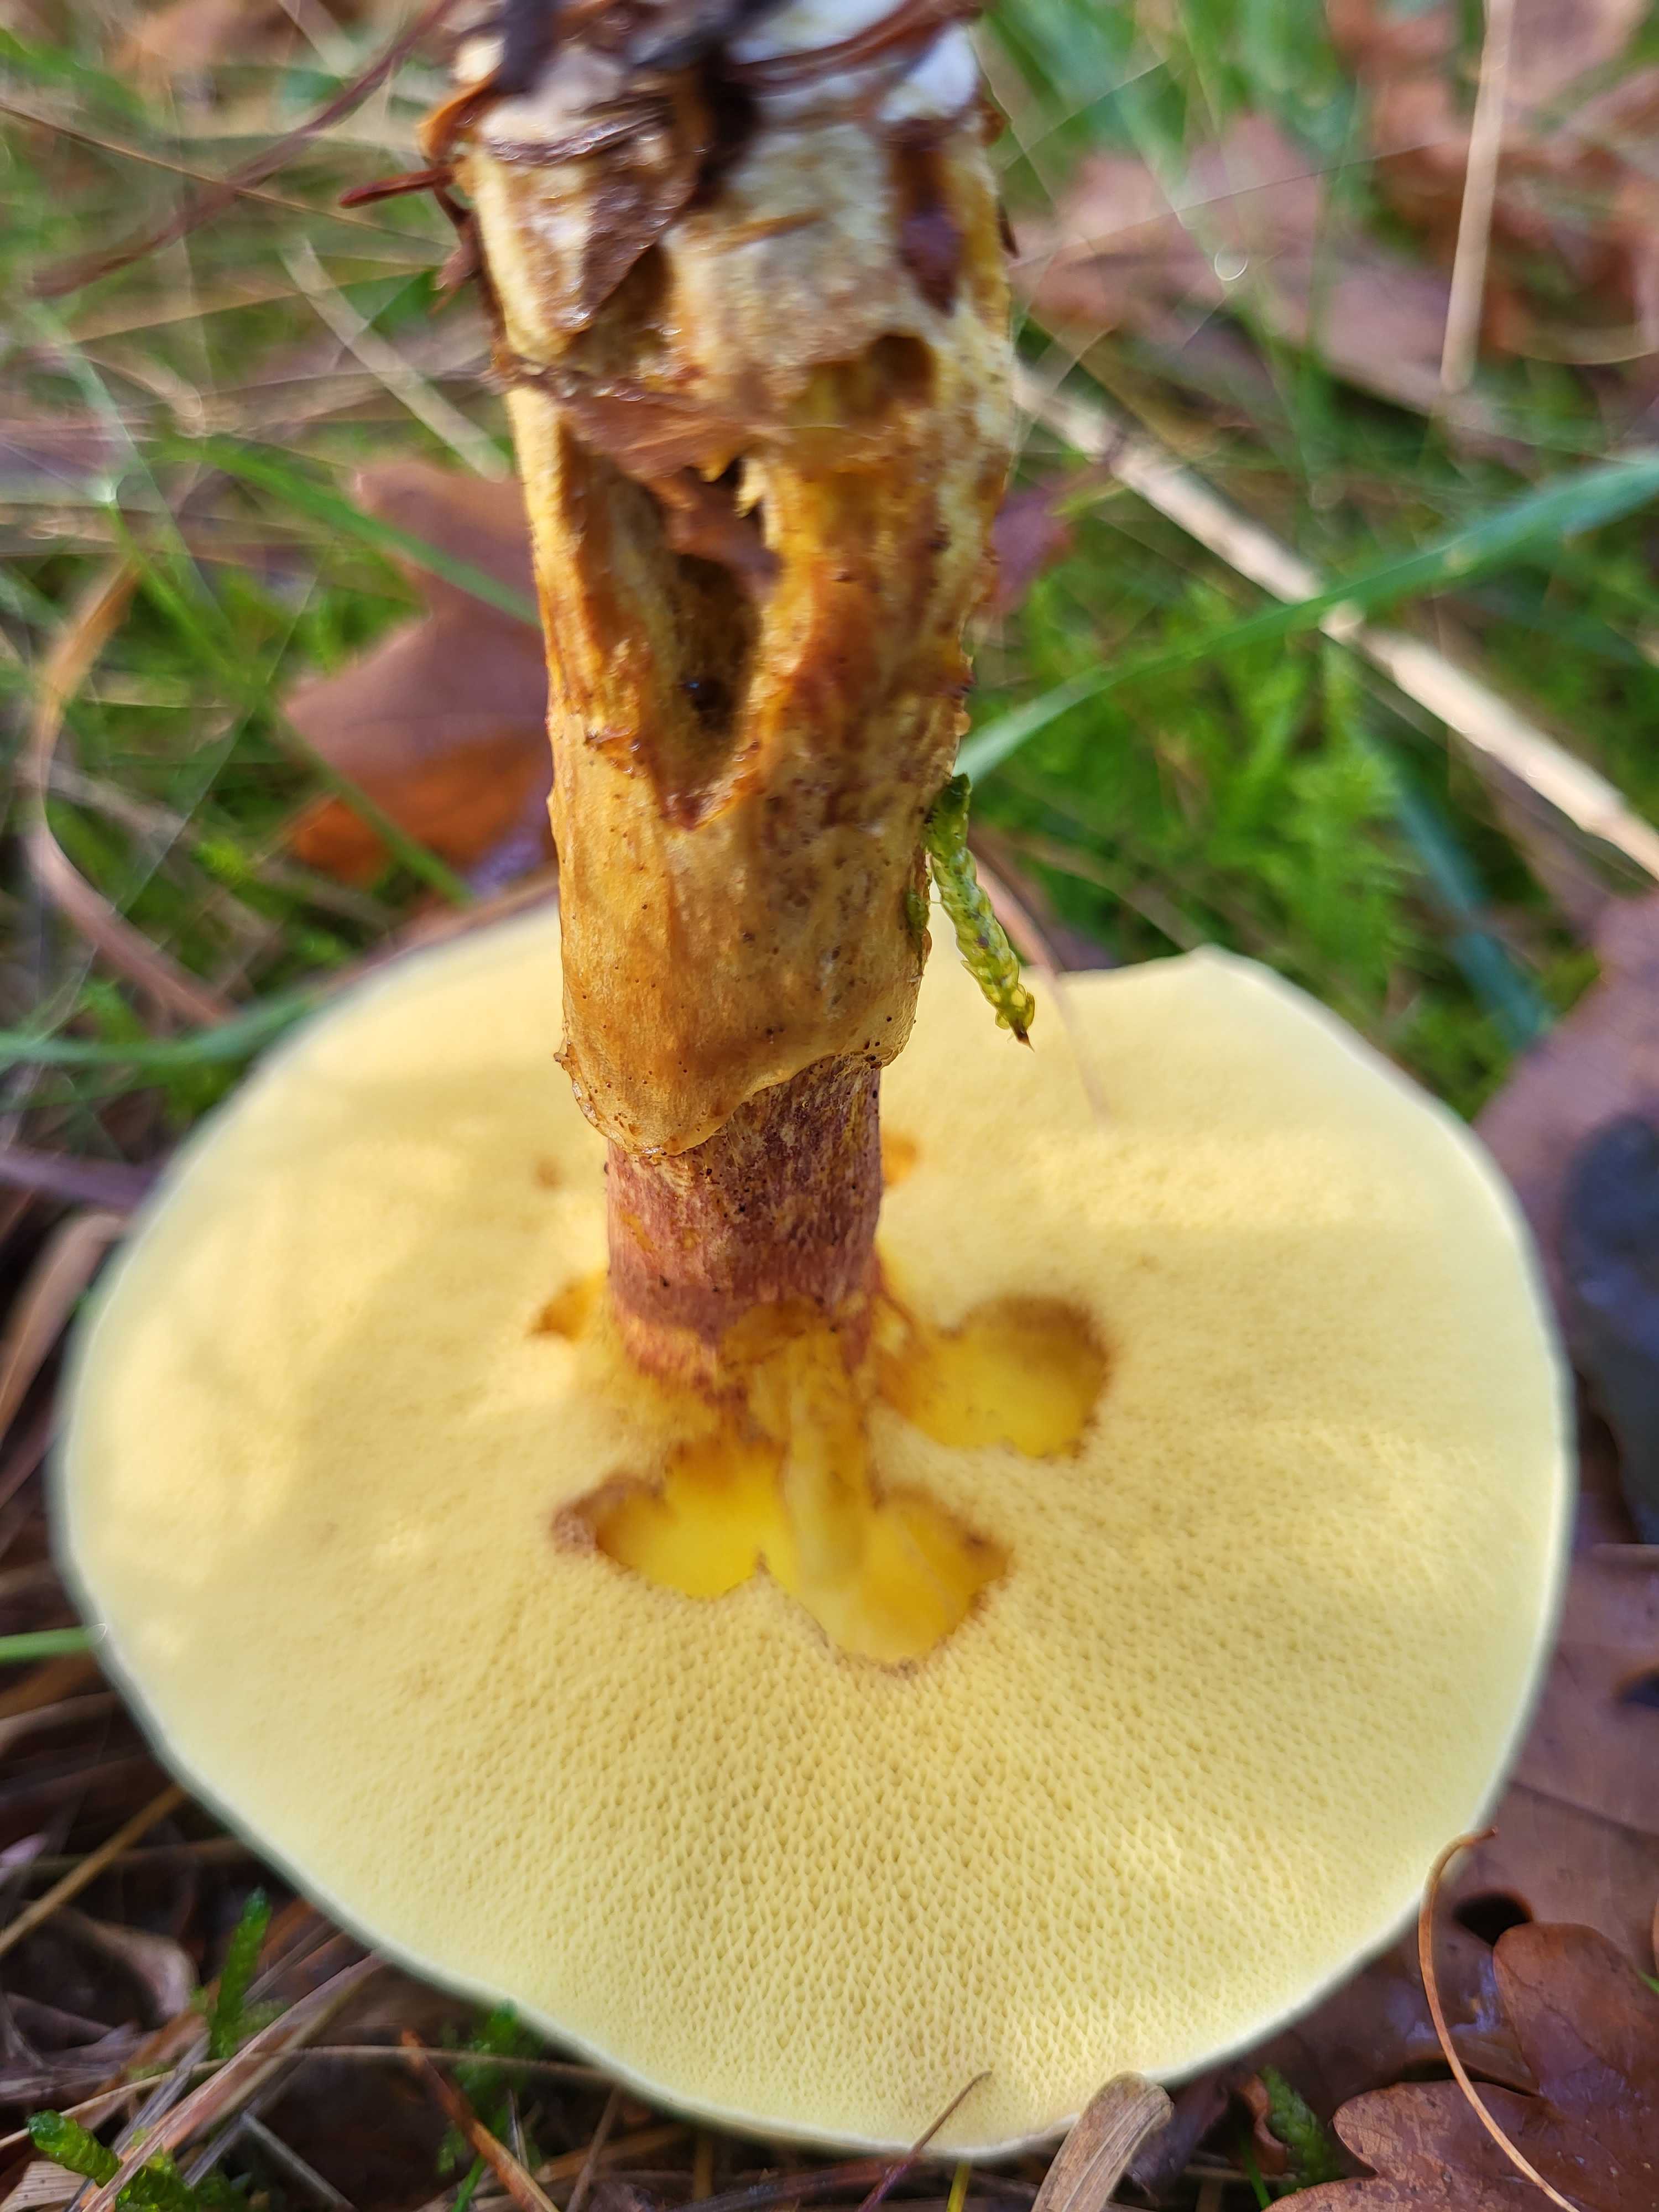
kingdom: Fungi
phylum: Basidiomycota
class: Agaricomycetes
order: Boletales
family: Suillaceae
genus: Suillus
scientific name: Suillus grevillei
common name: lærke-slimrørhat
